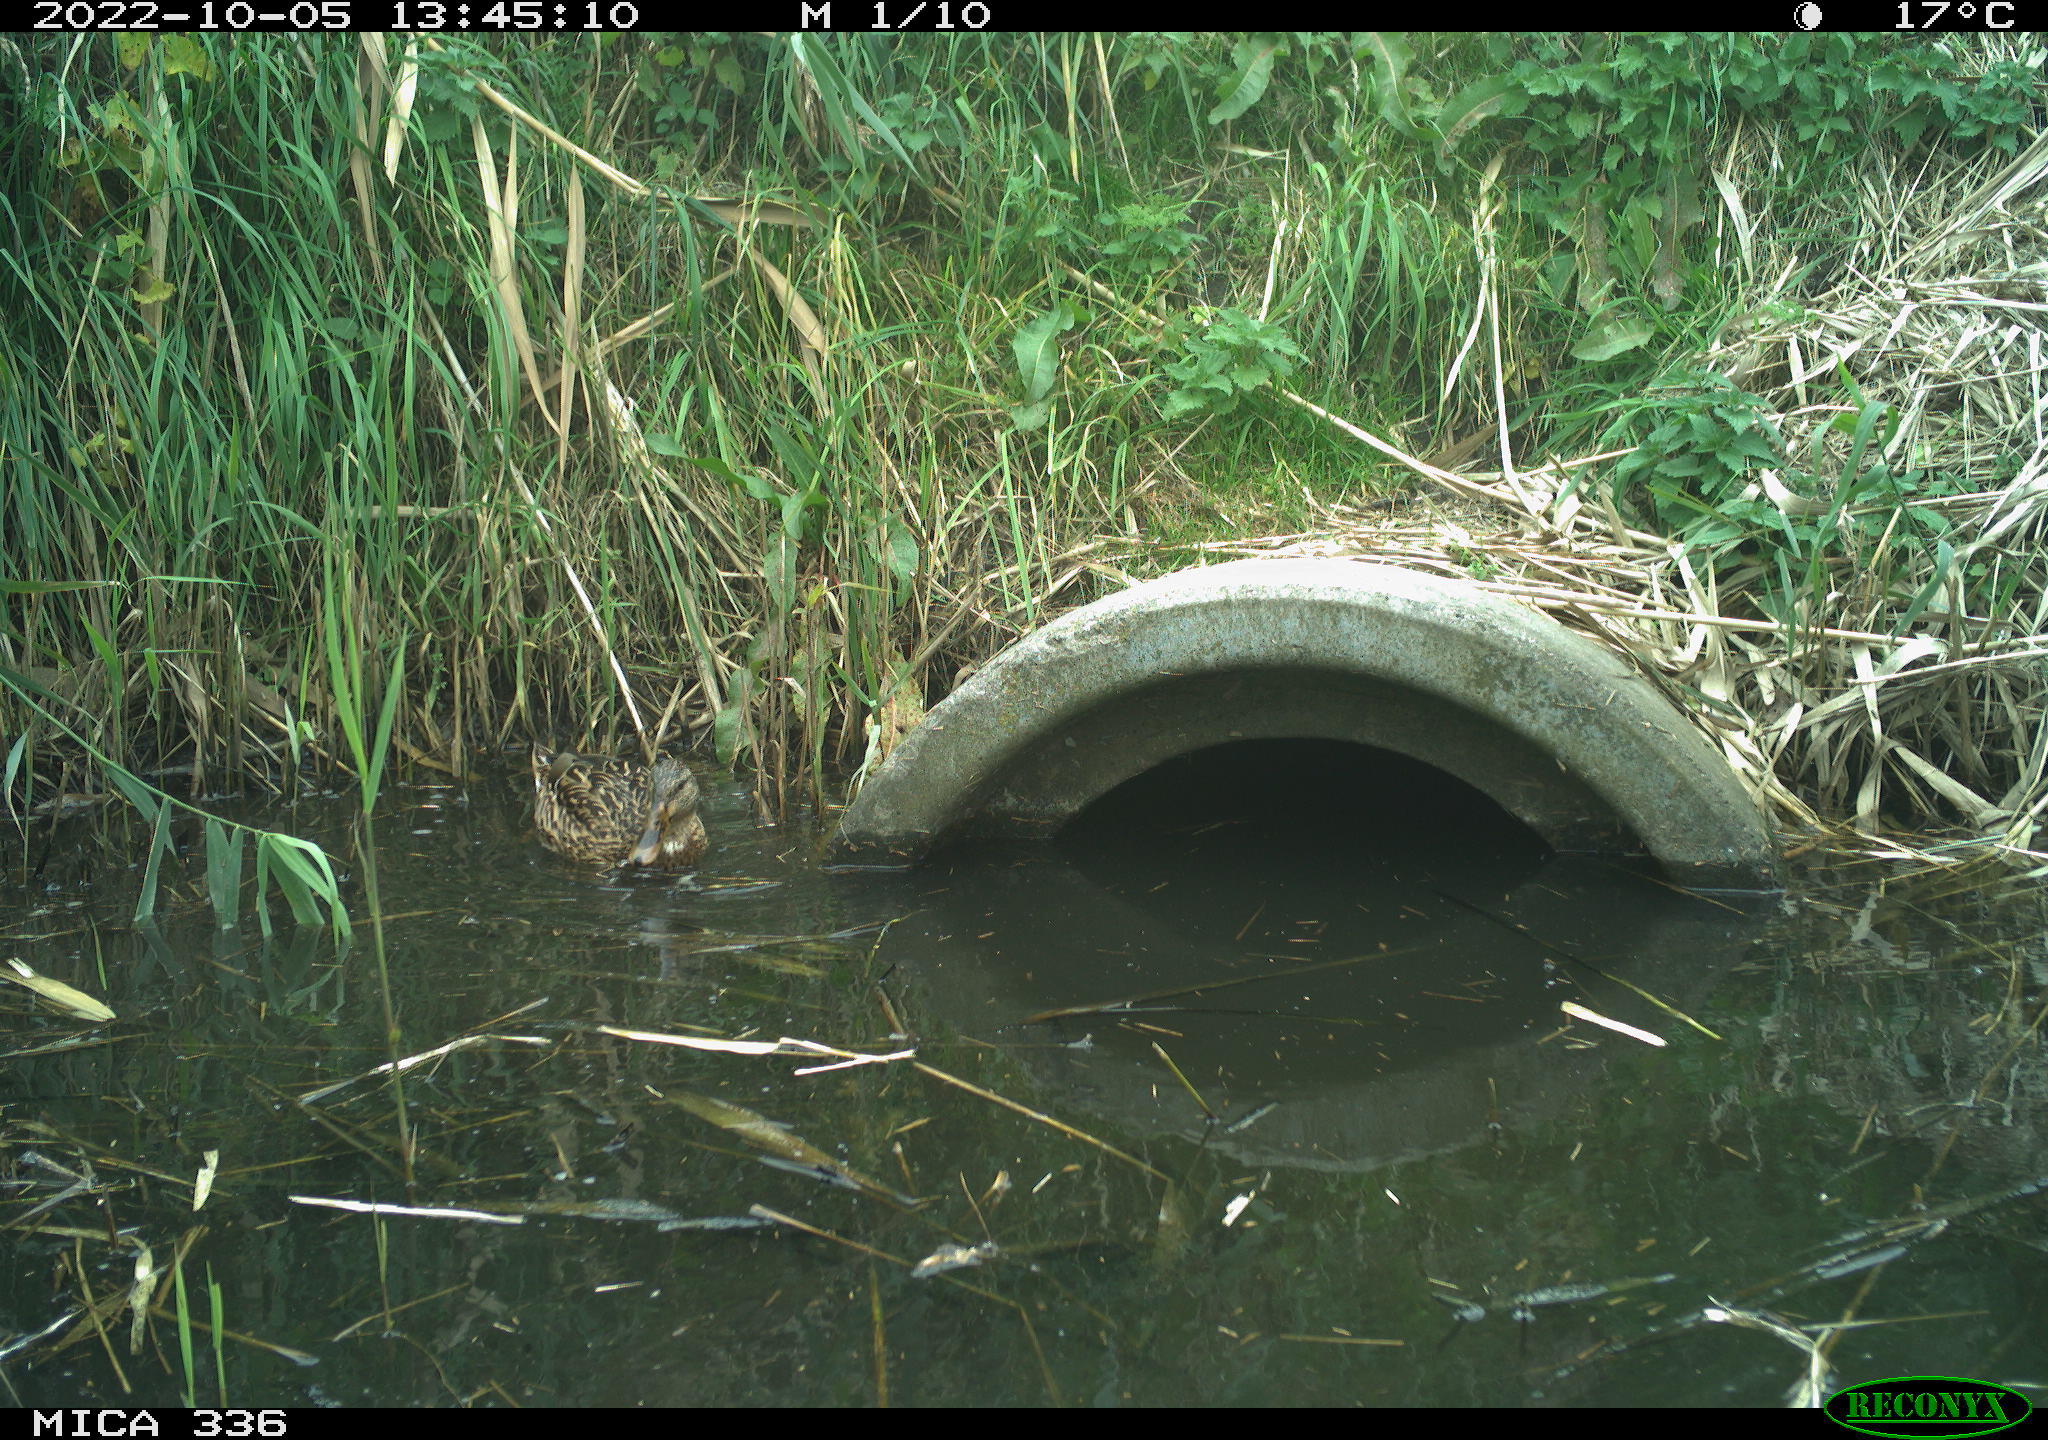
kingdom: Animalia
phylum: Chordata
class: Aves
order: Anseriformes
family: Anatidae
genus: Anas
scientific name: Anas
